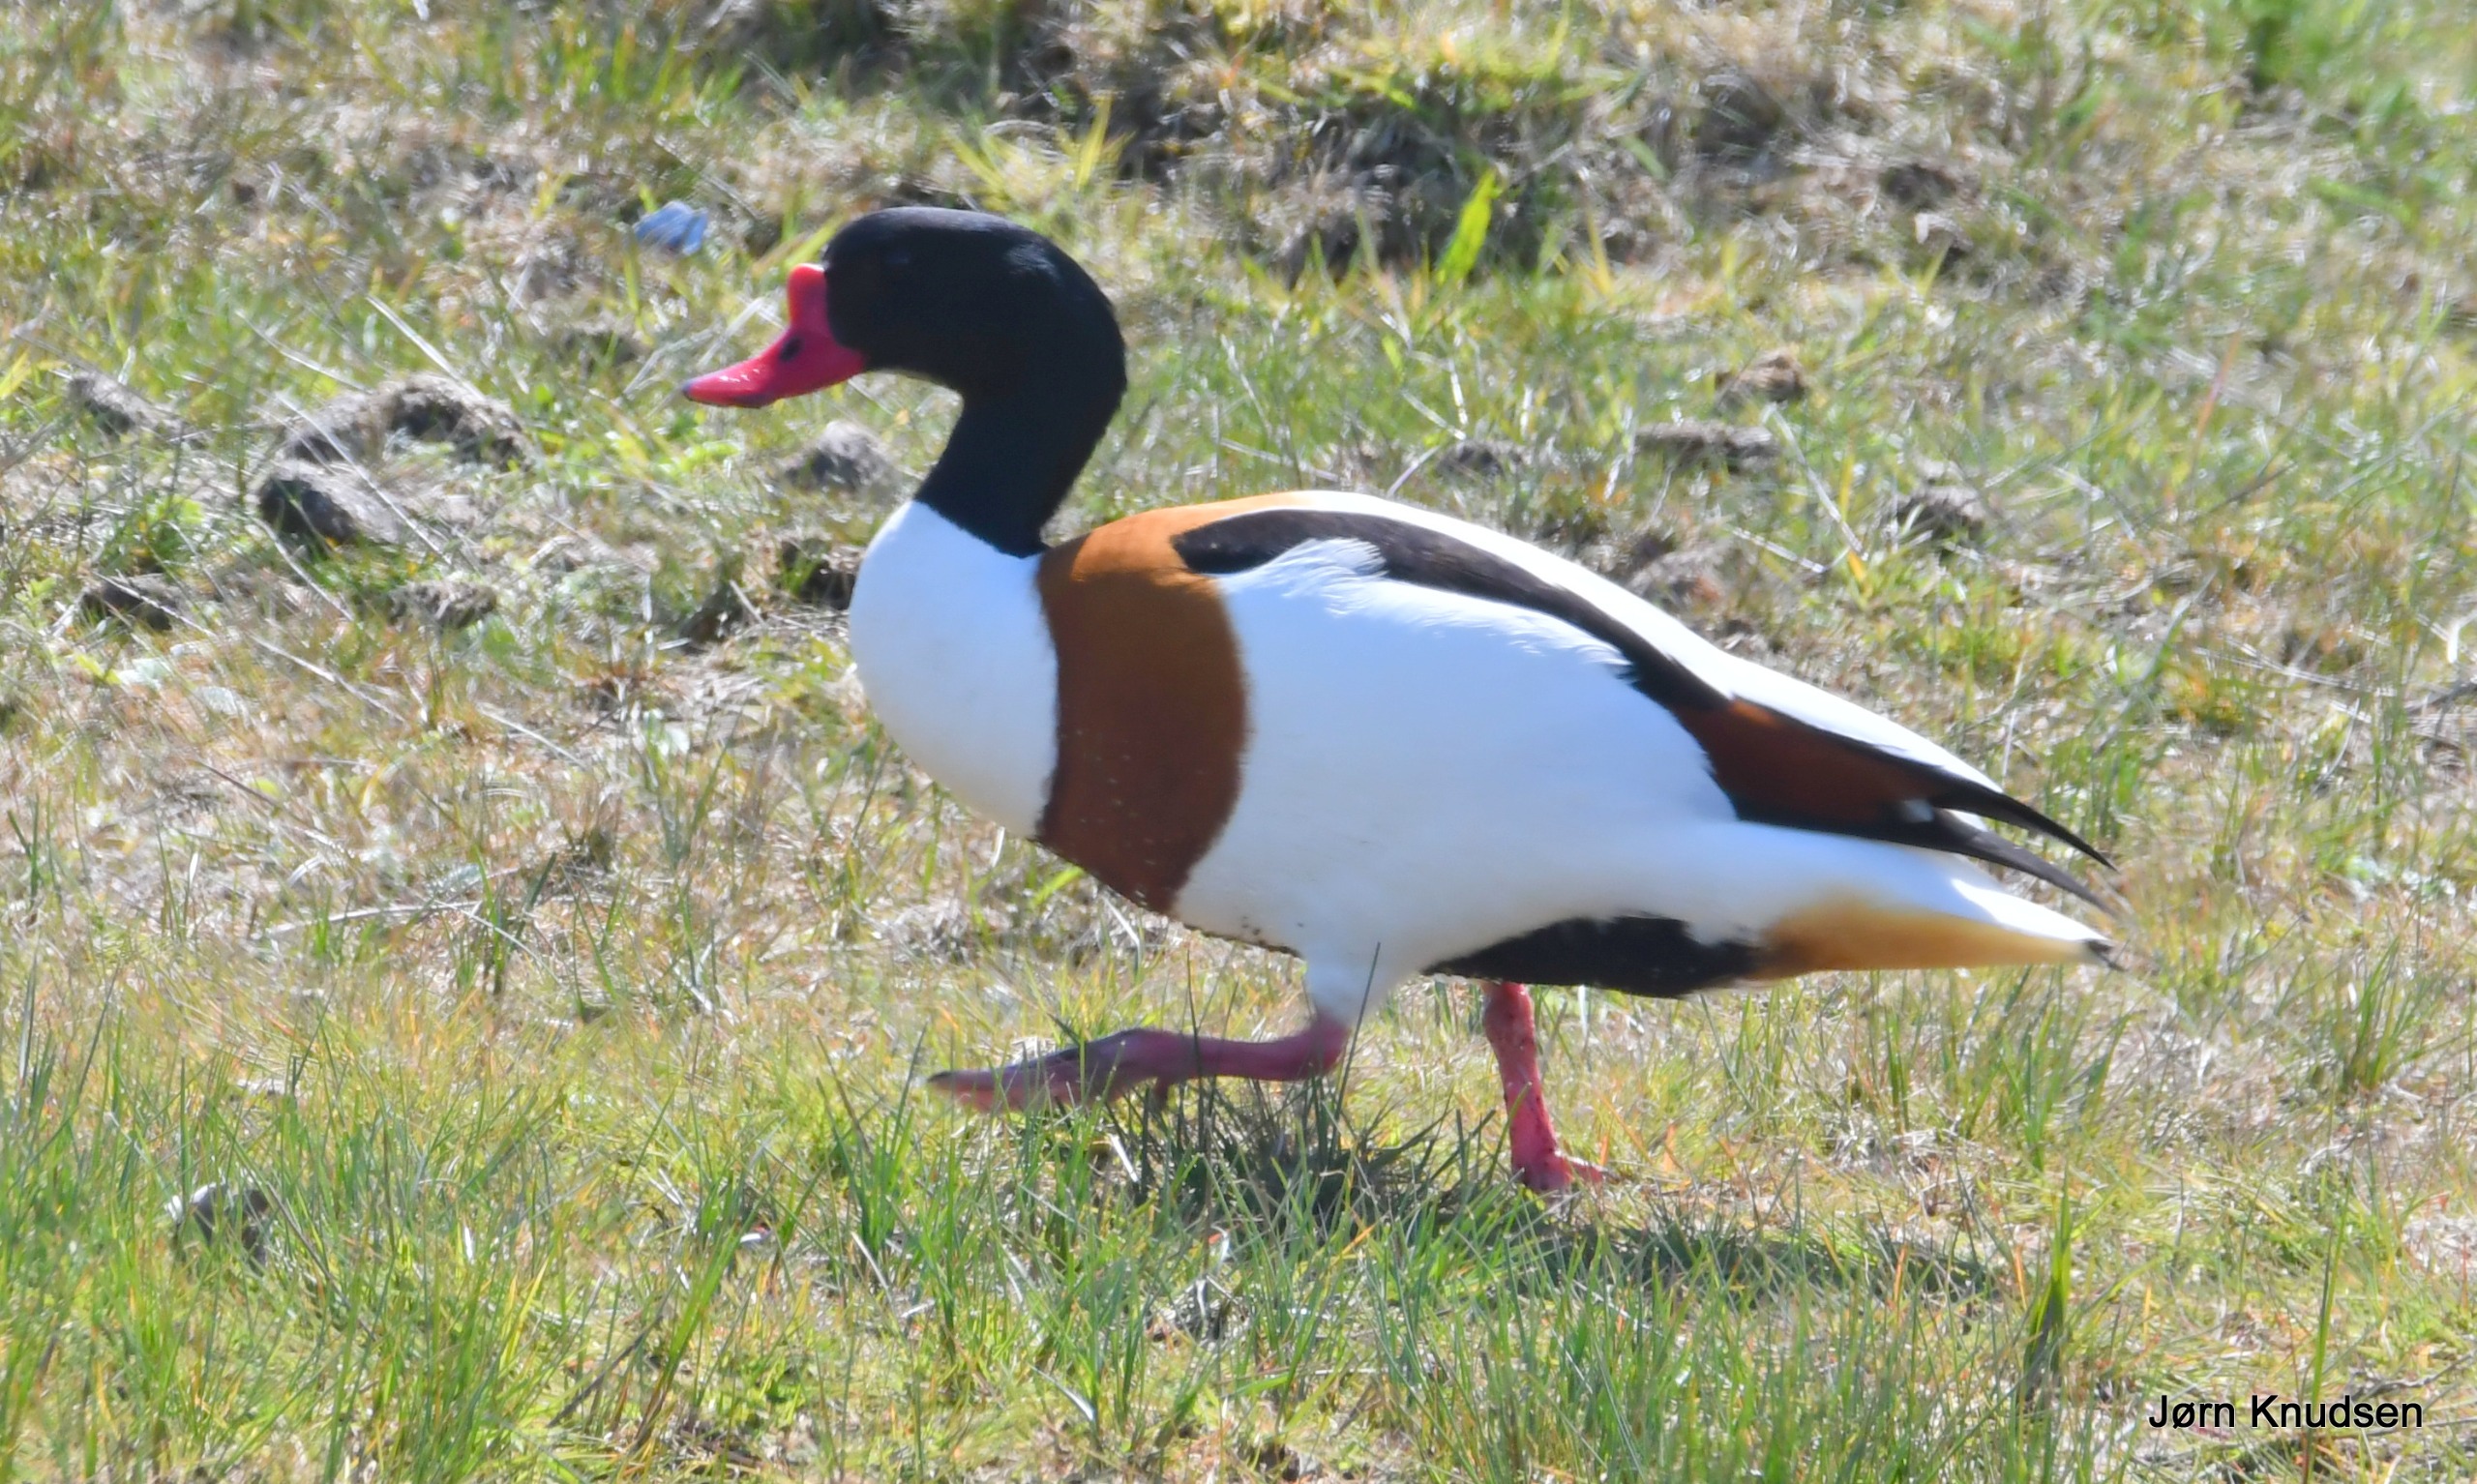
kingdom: Animalia
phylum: Chordata
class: Aves
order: Anseriformes
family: Anatidae
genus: Tadorna
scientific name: Tadorna tadorna
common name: Gravand
